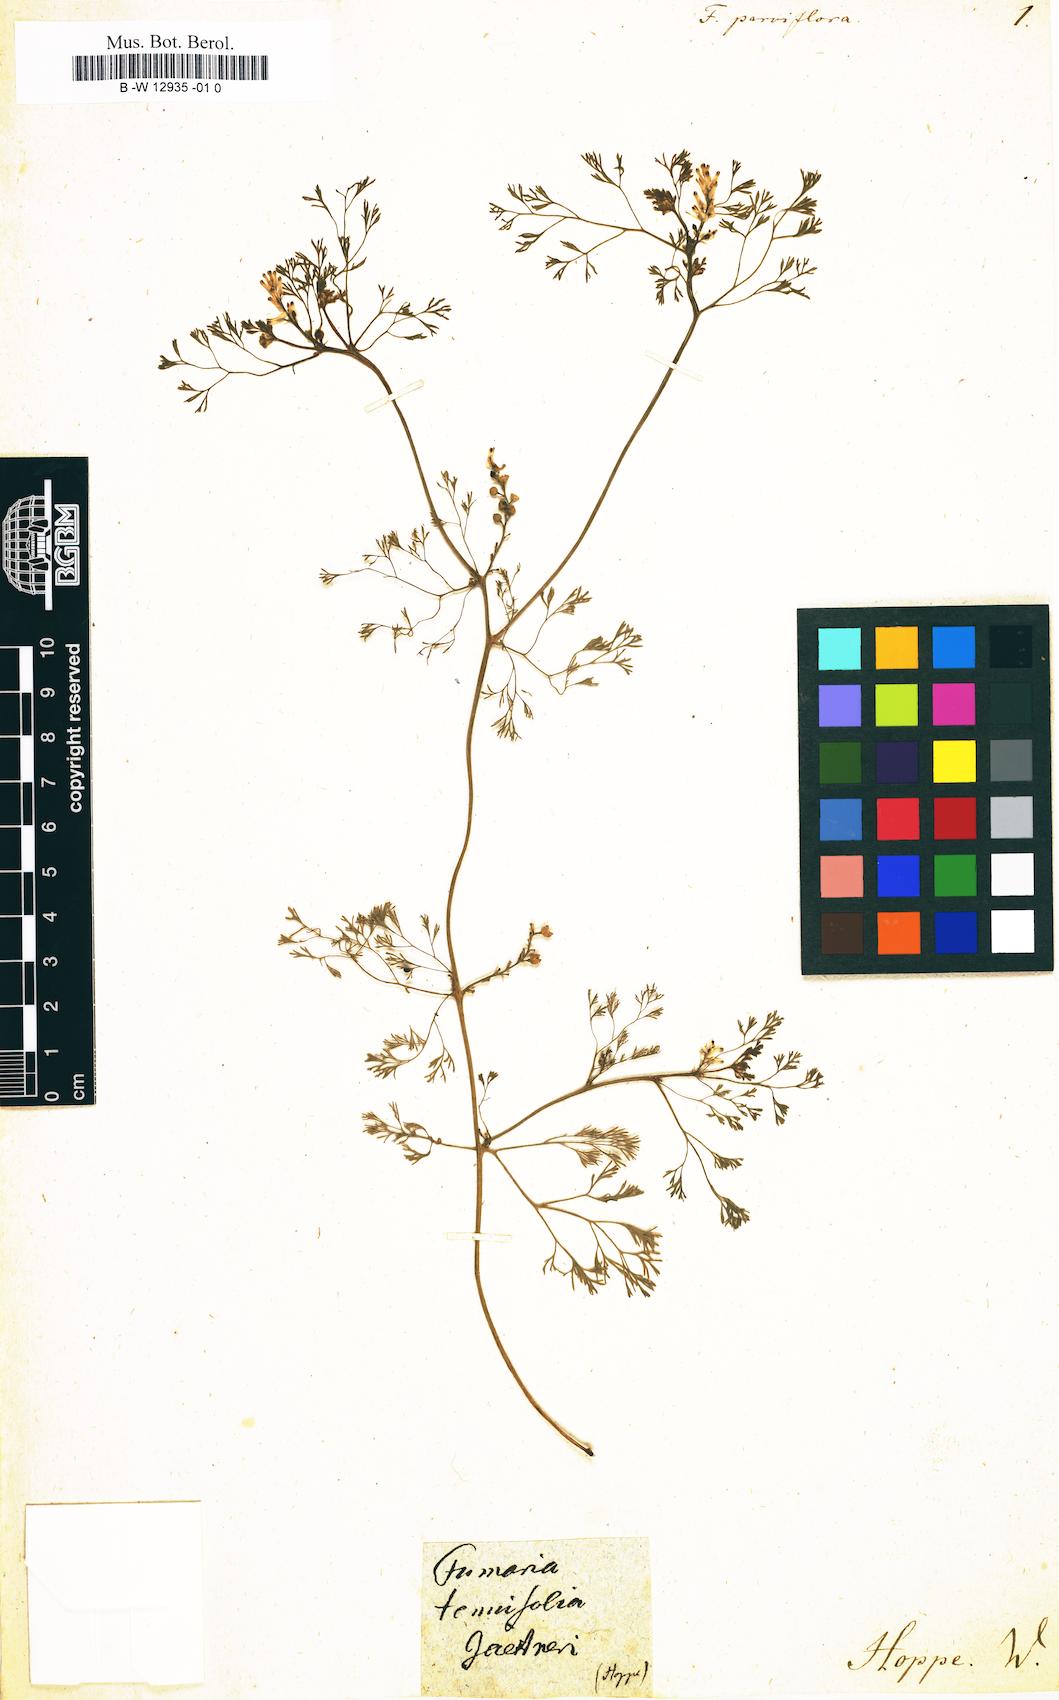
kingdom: Plantae
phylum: Tracheophyta
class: Magnoliopsida
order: Ranunculales
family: Papaveraceae
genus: Fumaria
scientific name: Fumaria parviflora
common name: Fine-leaved fumitory
